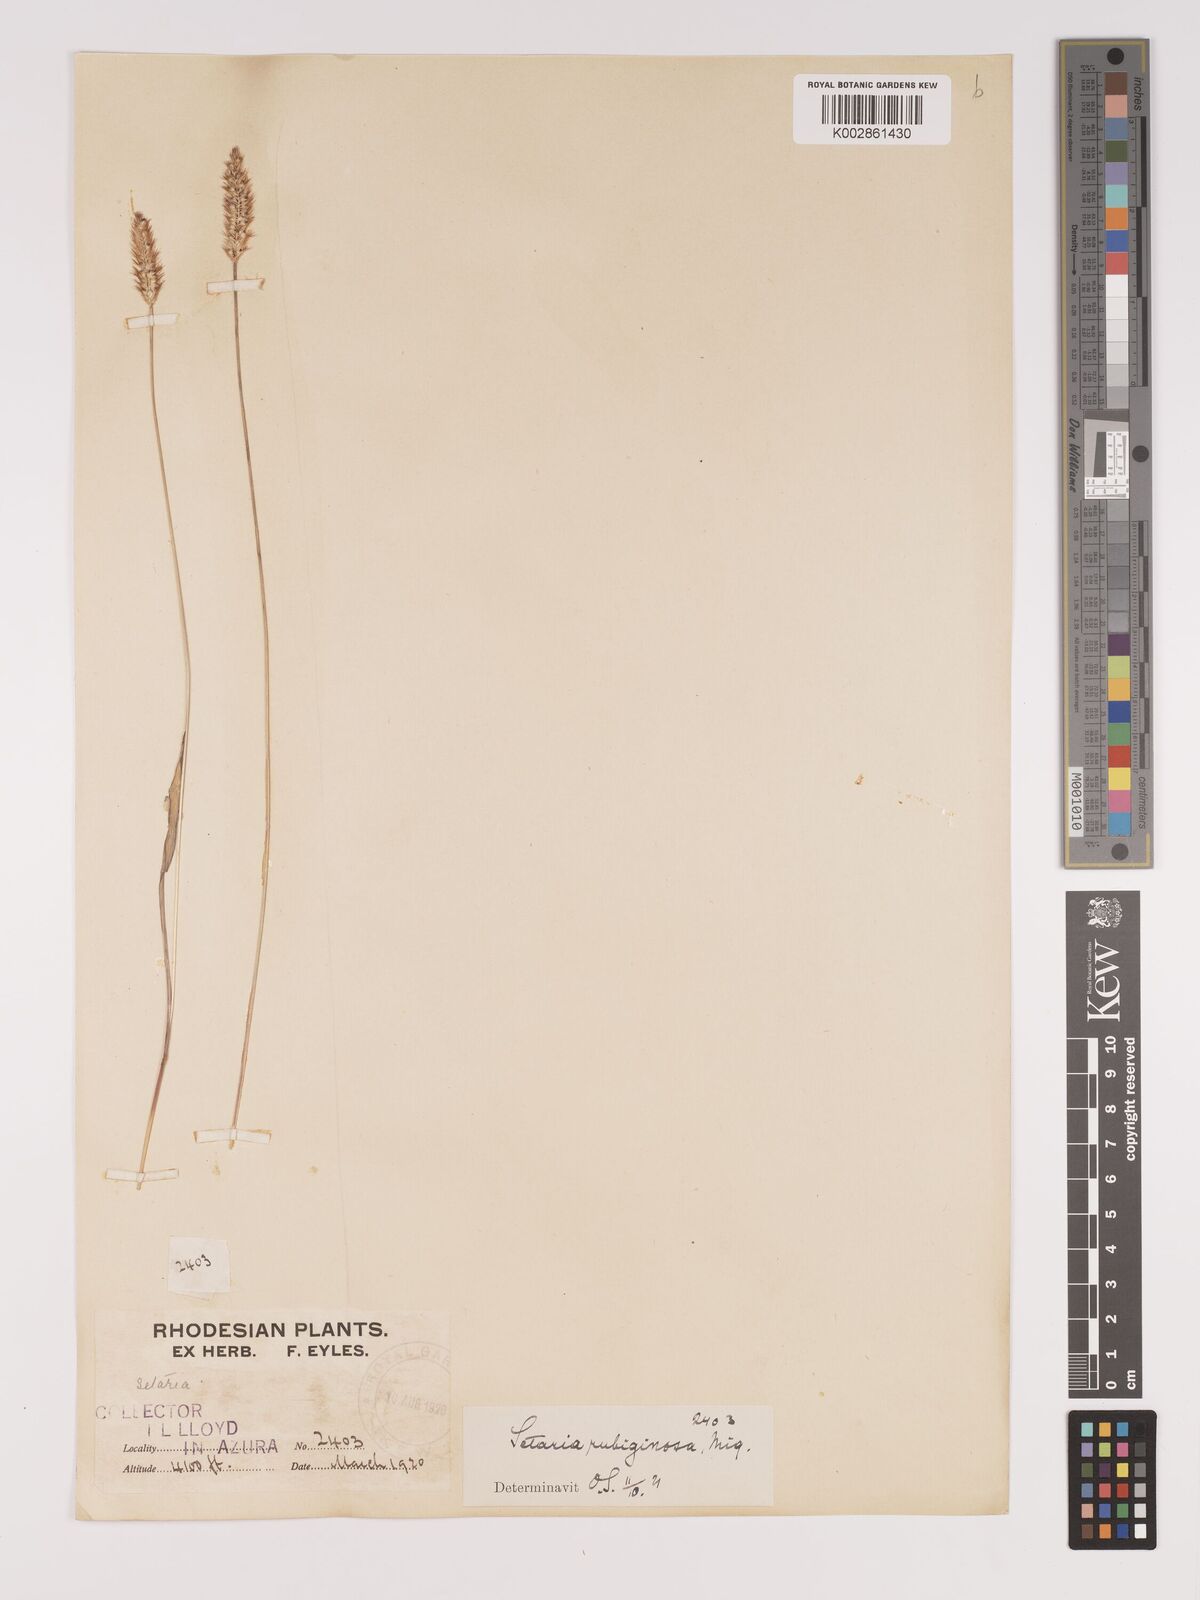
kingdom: Plantae
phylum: Tracheophyta
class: Liliopsida
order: Poales
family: Poaceae
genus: Setaria
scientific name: Setaria pumila
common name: Yellow bristle-grass
